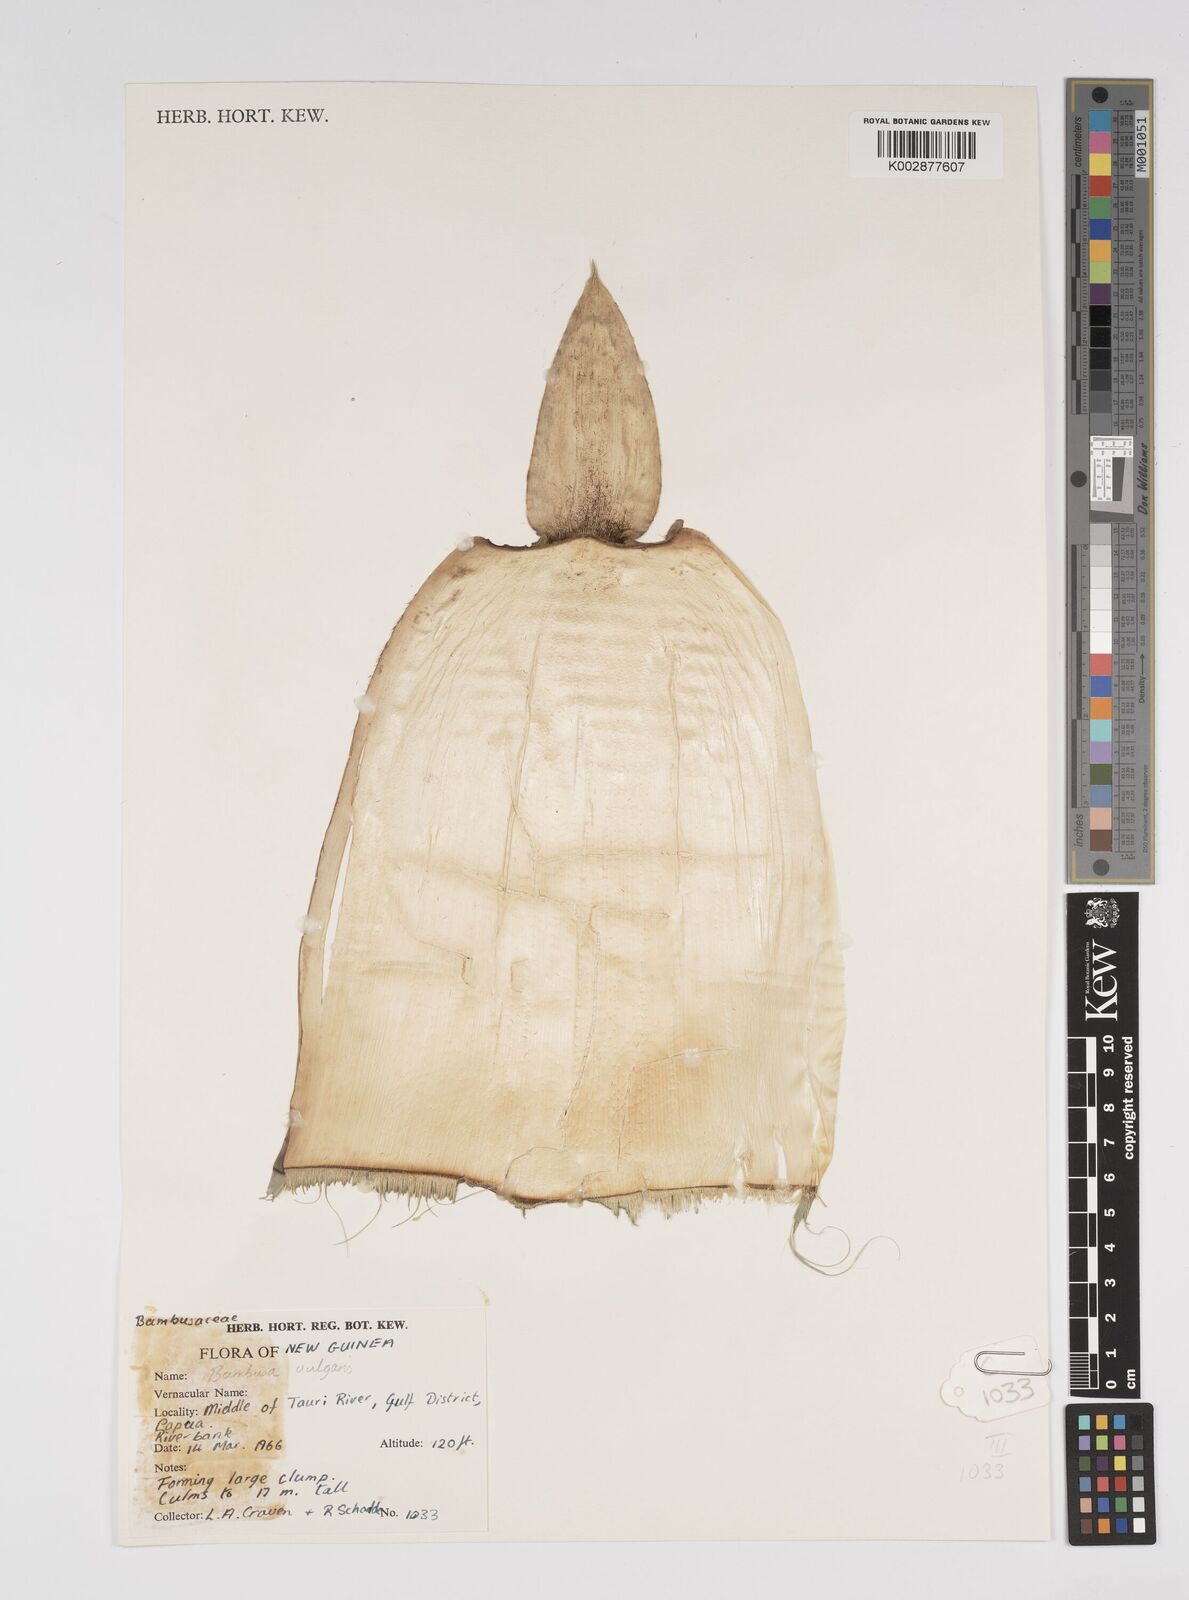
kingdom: Plantae
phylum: Tracheophyta
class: Liliopsida
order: Poales
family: Poaceae
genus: Bambusa
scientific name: Bambusa balcooa
